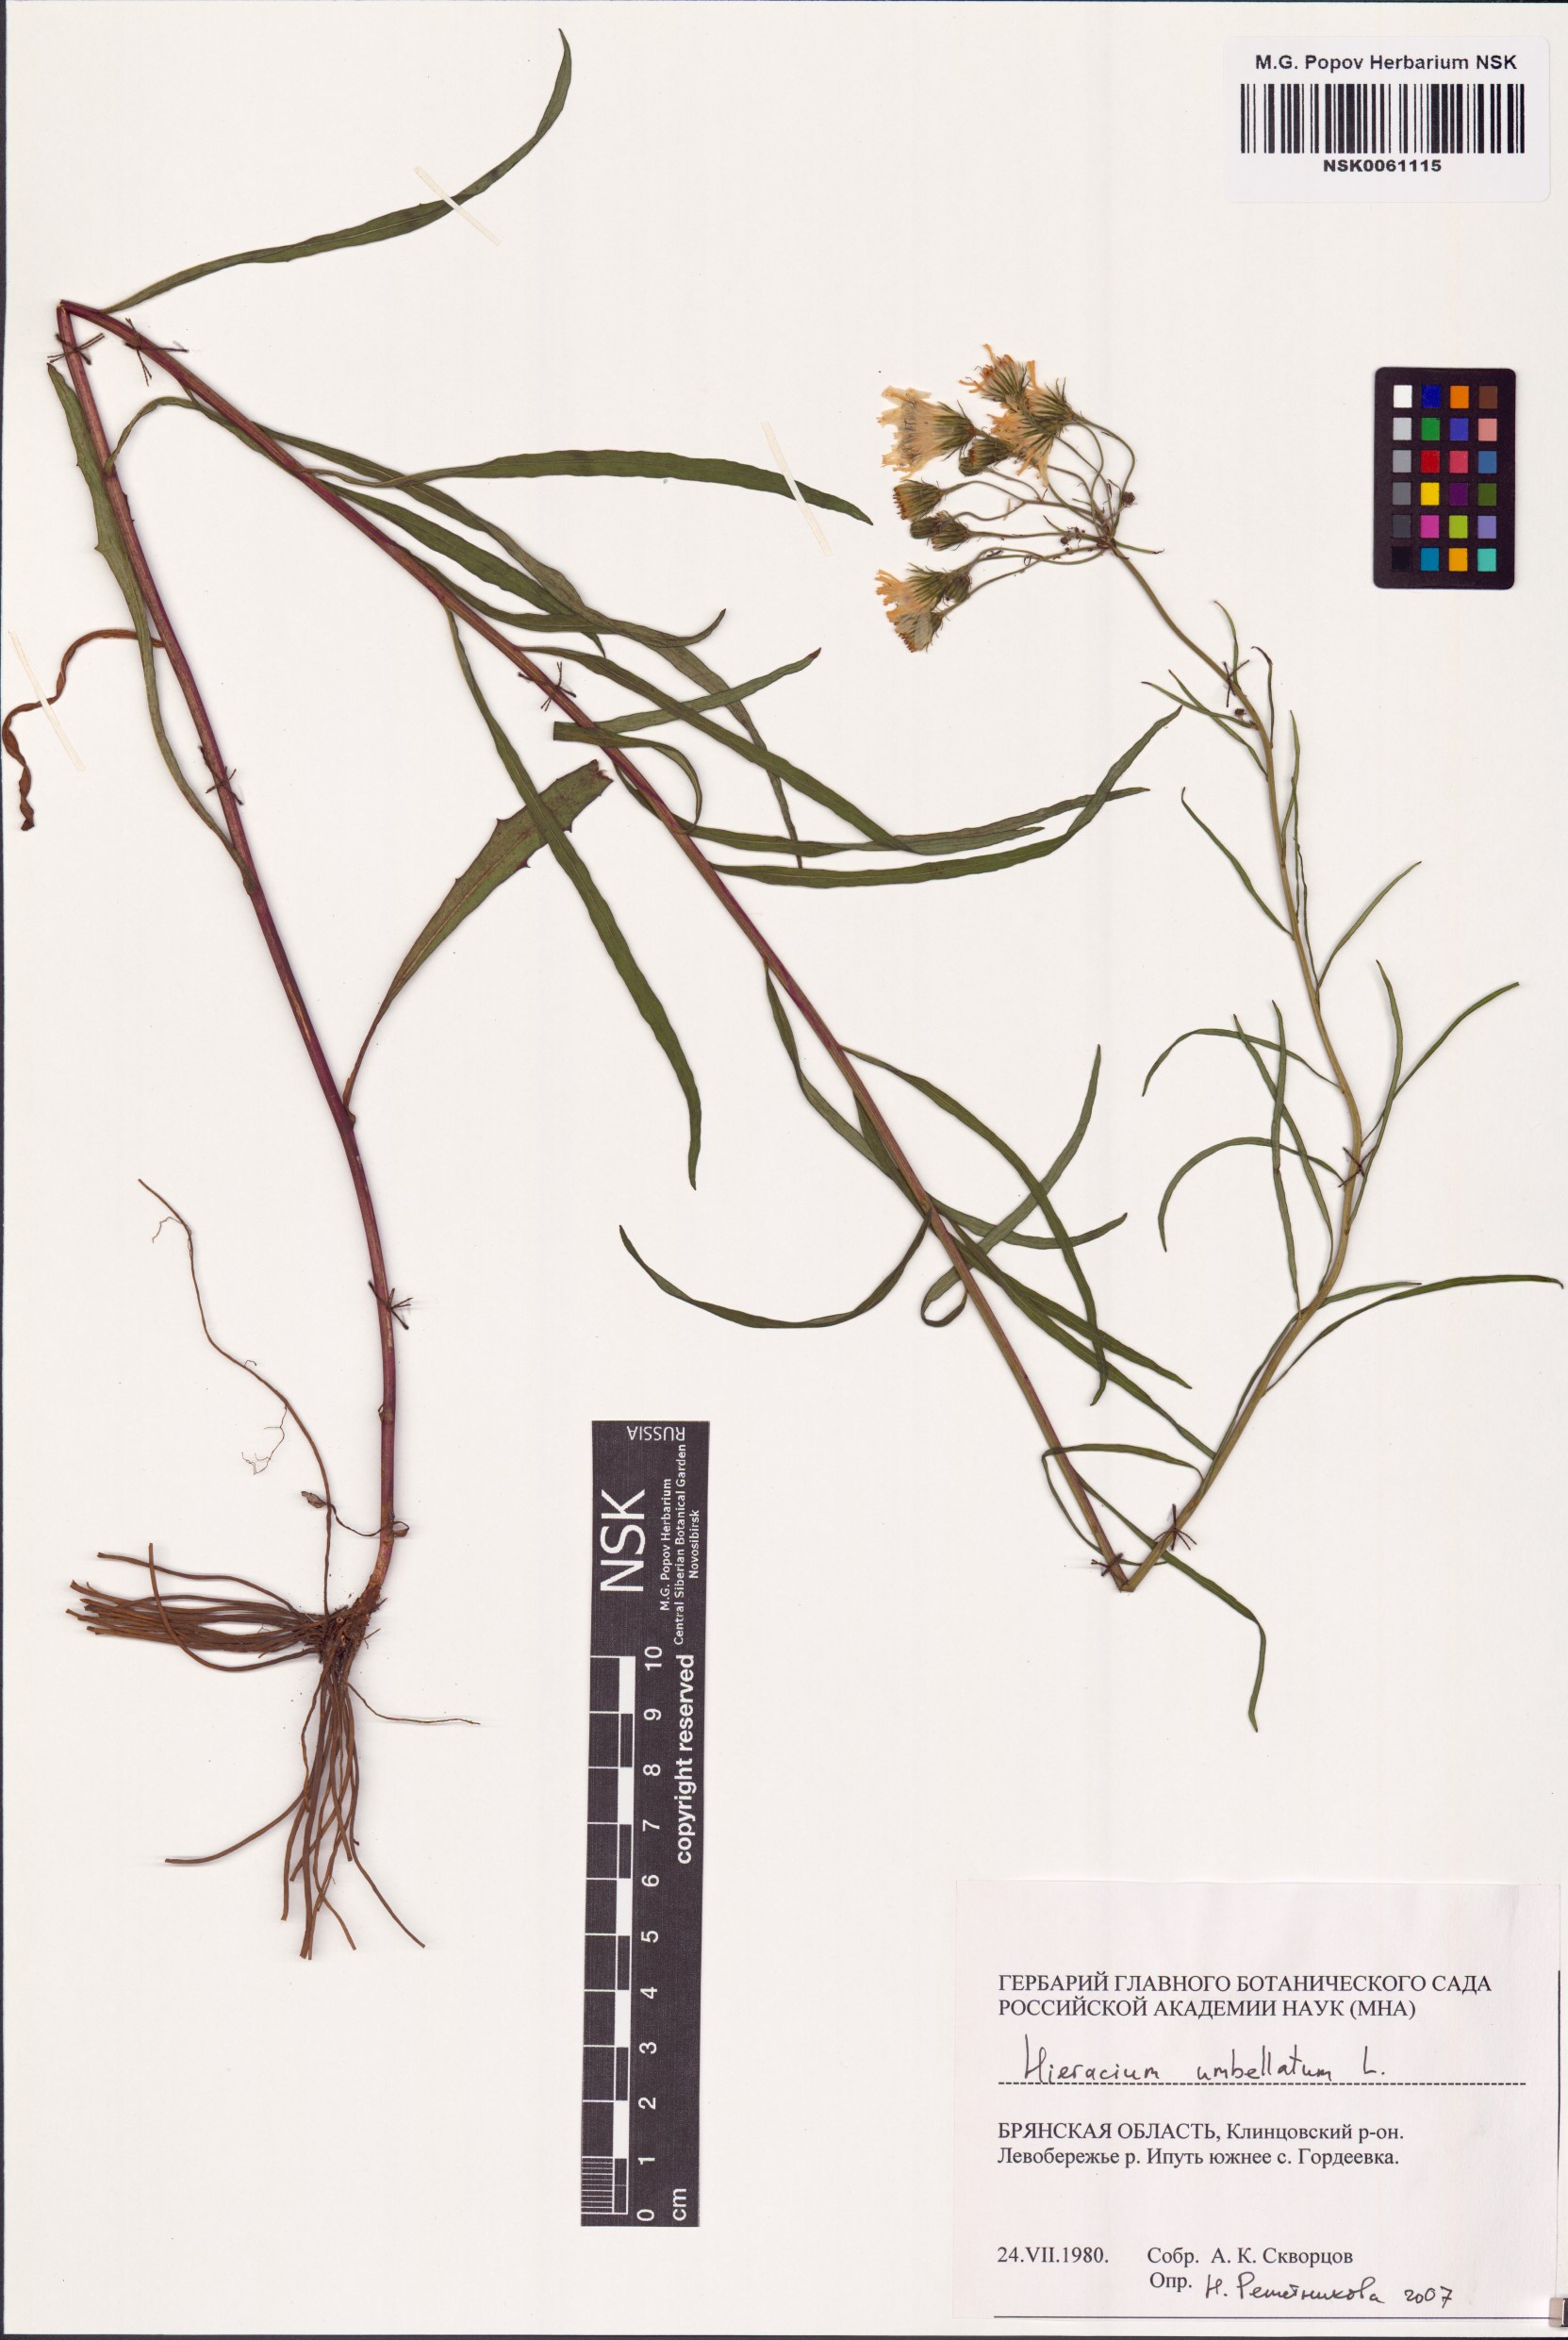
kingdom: Plantae
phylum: Tracheophyta
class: Magnoliopsida
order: Asterales
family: Asteraceae
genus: Hieracium
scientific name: Hieracium umbellatum
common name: Northern hawkweed
